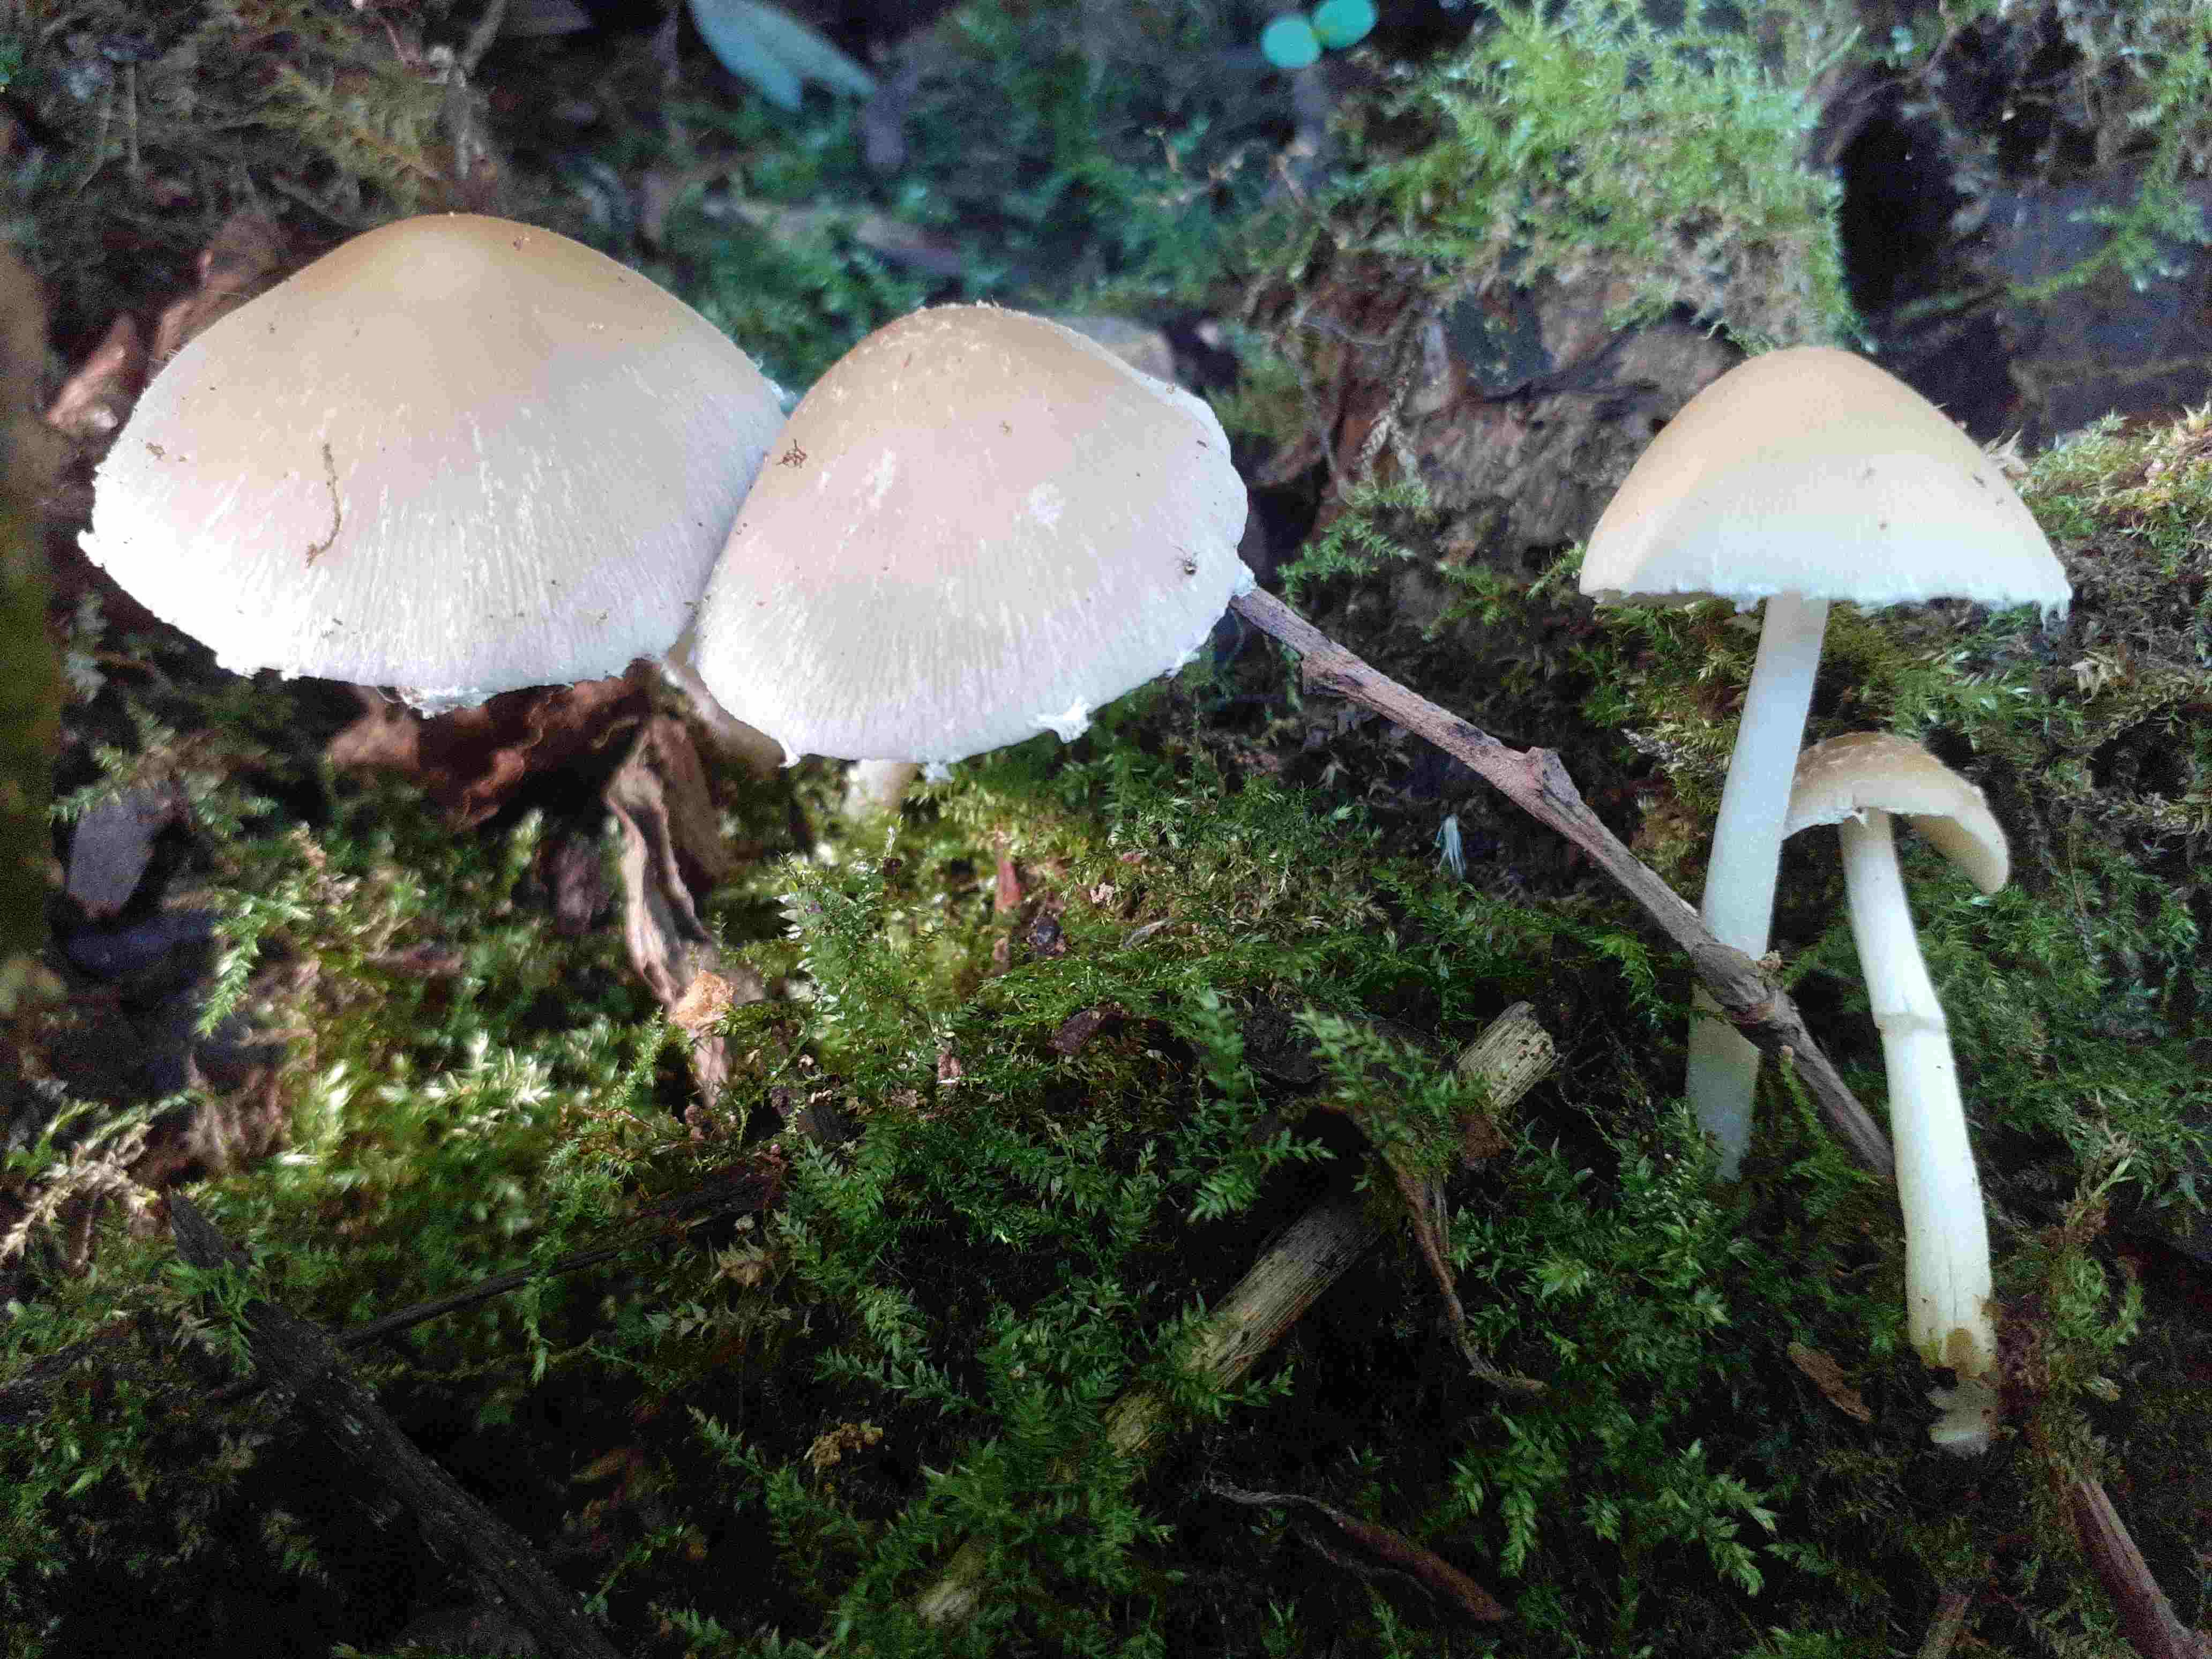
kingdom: Fungi
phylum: Basidiomycota
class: Agaricomycetes
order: Agaricales
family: Psathyrellaceae
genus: Candolleomyces
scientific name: Candolleomyces candolleanus
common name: Candolles mørkhat
